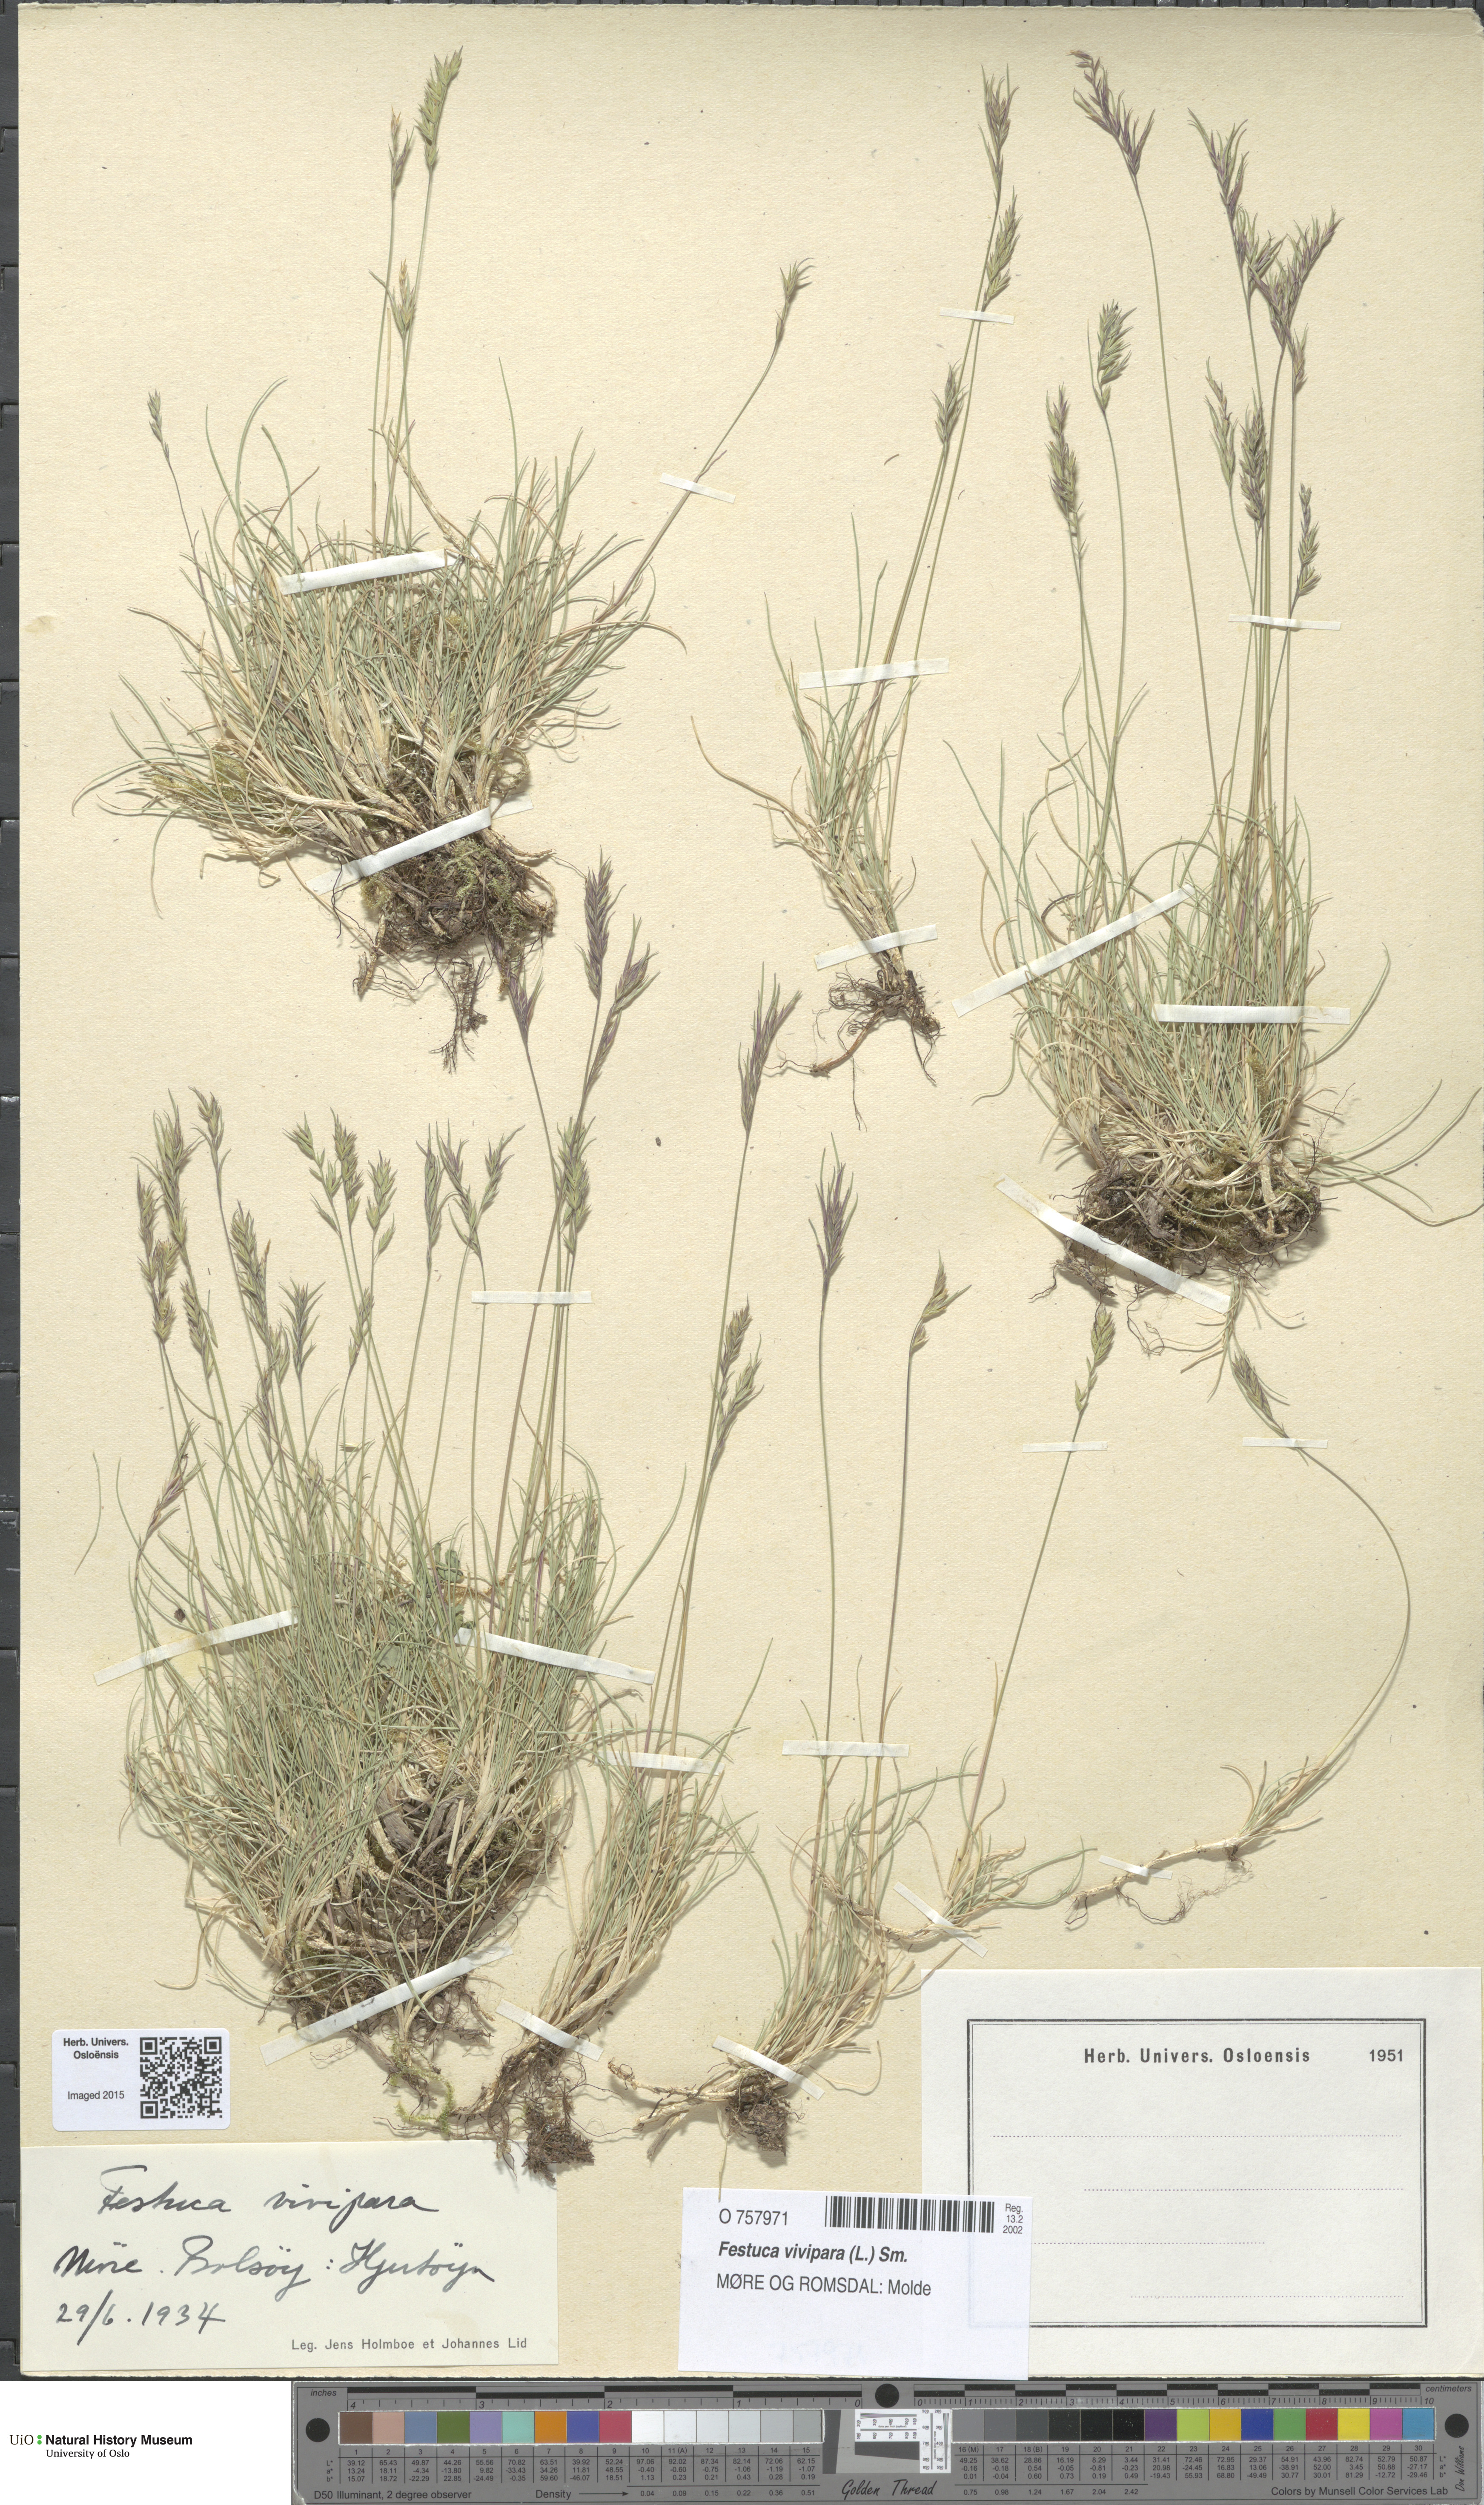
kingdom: Plantae
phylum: Tracheophyta
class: Liliopsida
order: Poales
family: Poaceae
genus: Festuca
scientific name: Festuca vivipara
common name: Viviparous sheep's-fescue
